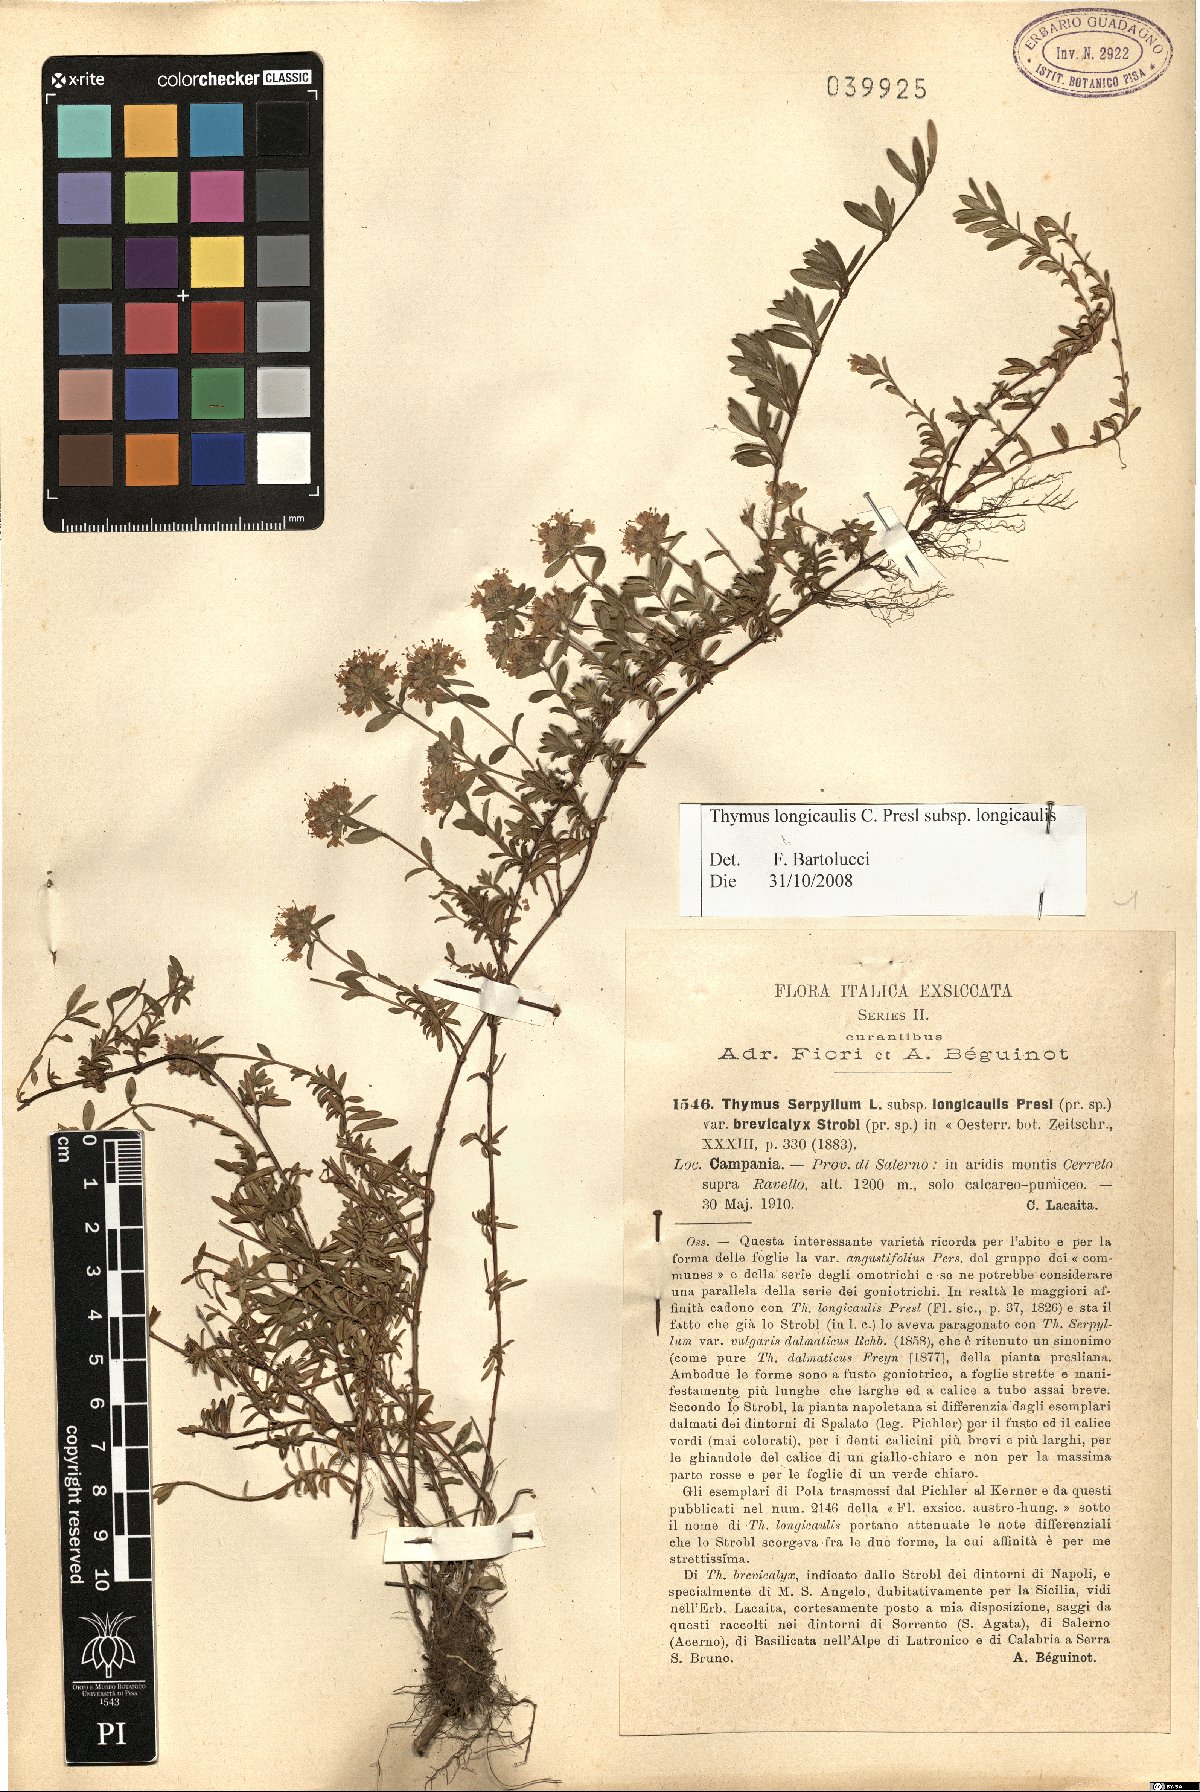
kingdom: Plantae
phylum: Tracheophyta
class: Magnoliopsida
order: Lamiales
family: Lamiaceae
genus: Thymus
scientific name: Thymus longicaulis
